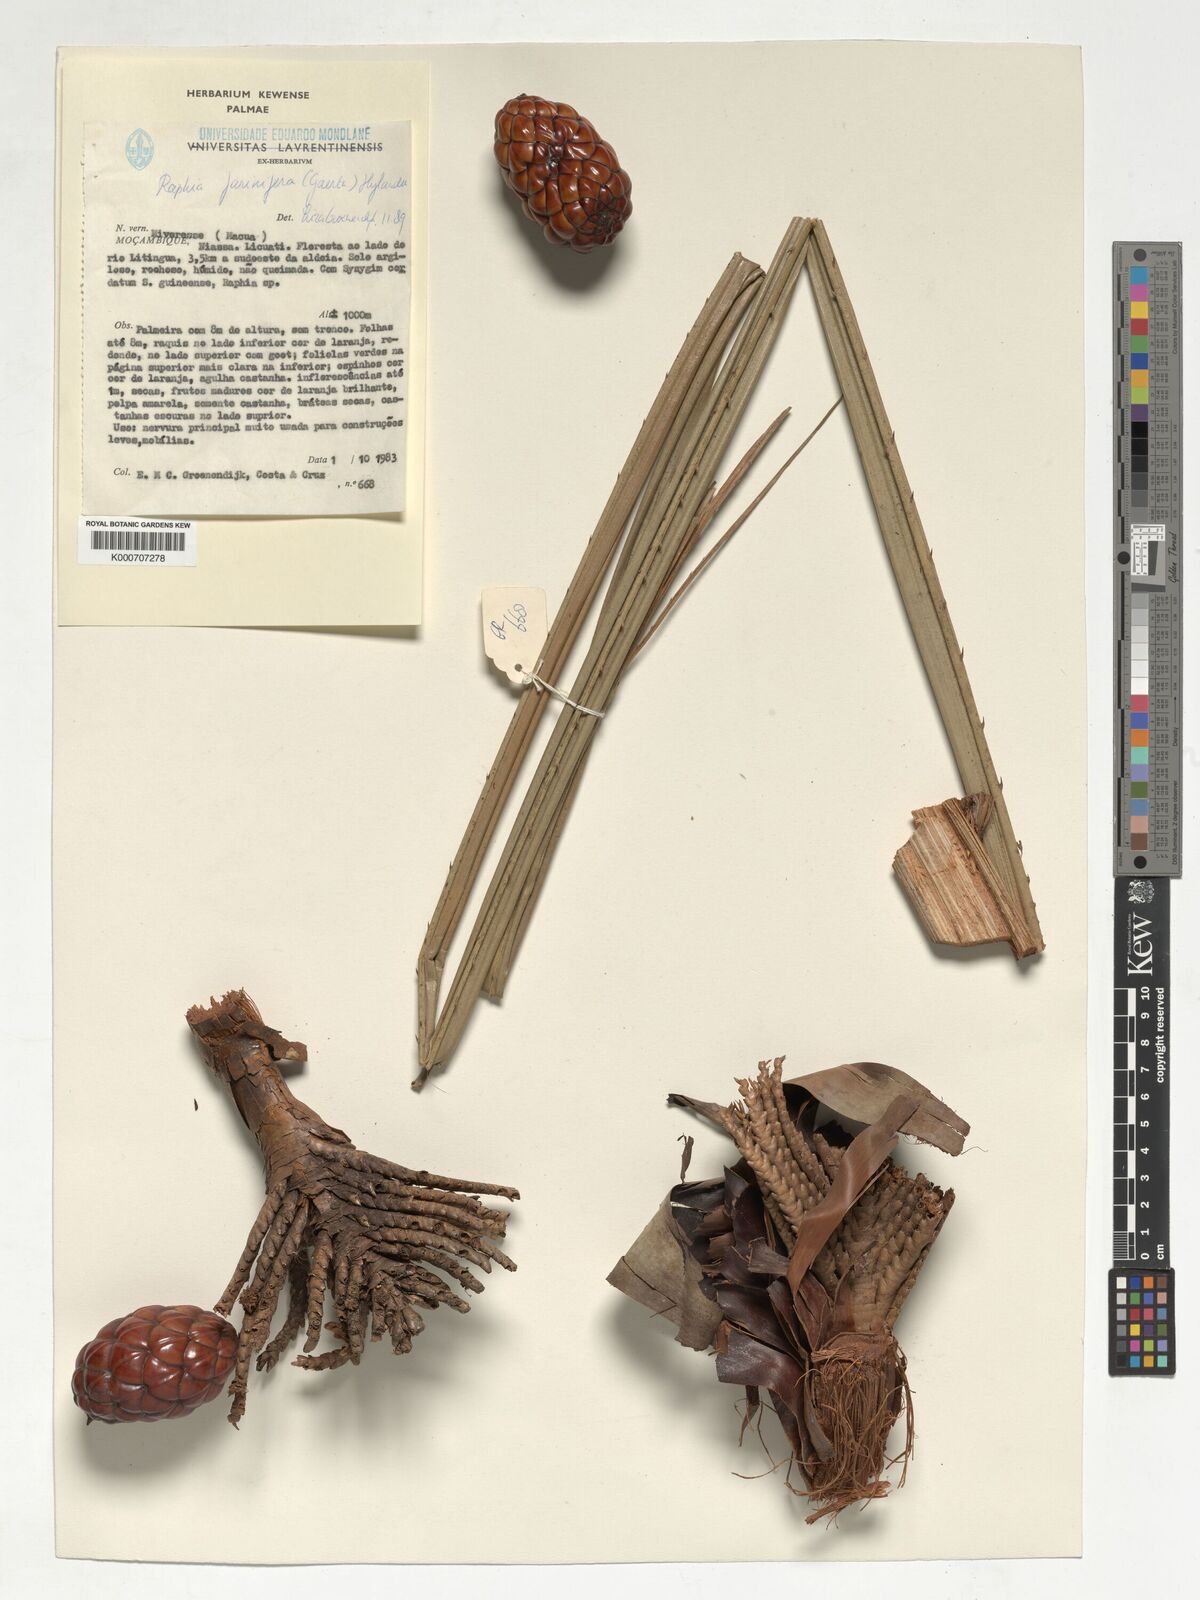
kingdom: Plantae
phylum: Tracheophyta
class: Liliopsida
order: Arecales
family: Arecaceae
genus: Raphia
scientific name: Raphia farinifera
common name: Raphia palm
